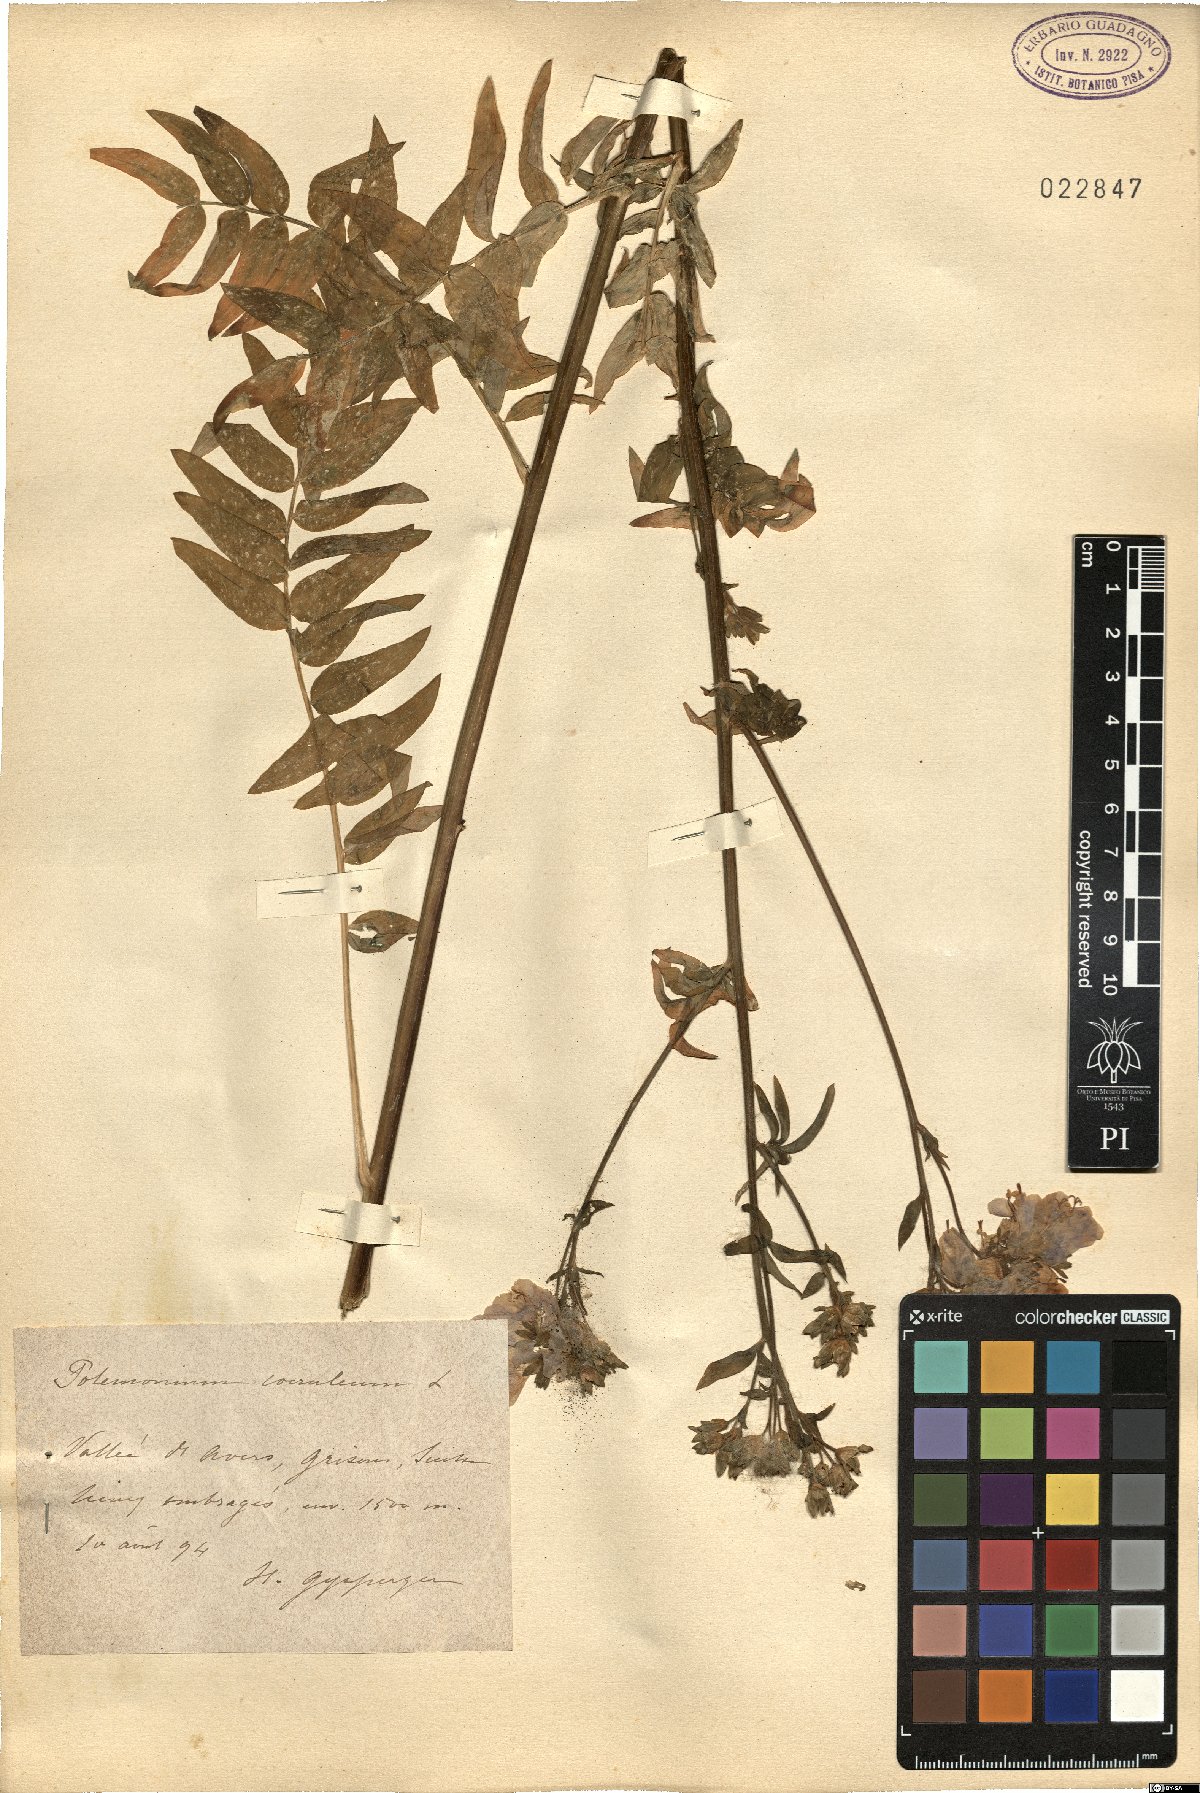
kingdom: Plantae
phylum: Tracheophyta
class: Magnoliopsida
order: Ericales
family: Polemoniaceae
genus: Polemonium
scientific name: Polemonium caeruleum
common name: Jacob's-ladder
